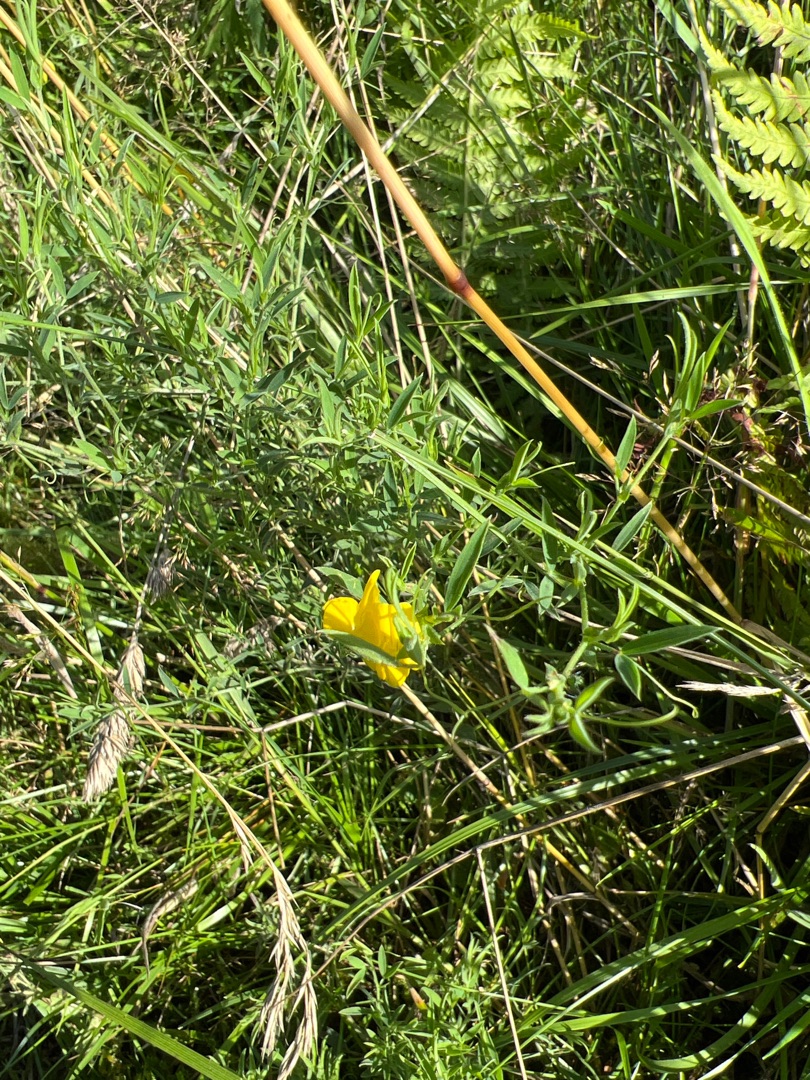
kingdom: Plantae
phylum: Tracheophyta
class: Magnoliopsida
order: Fabales
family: Fabaceae
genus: Lathyrus
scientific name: Lathyrus pratensis
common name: Gul fladbælg
